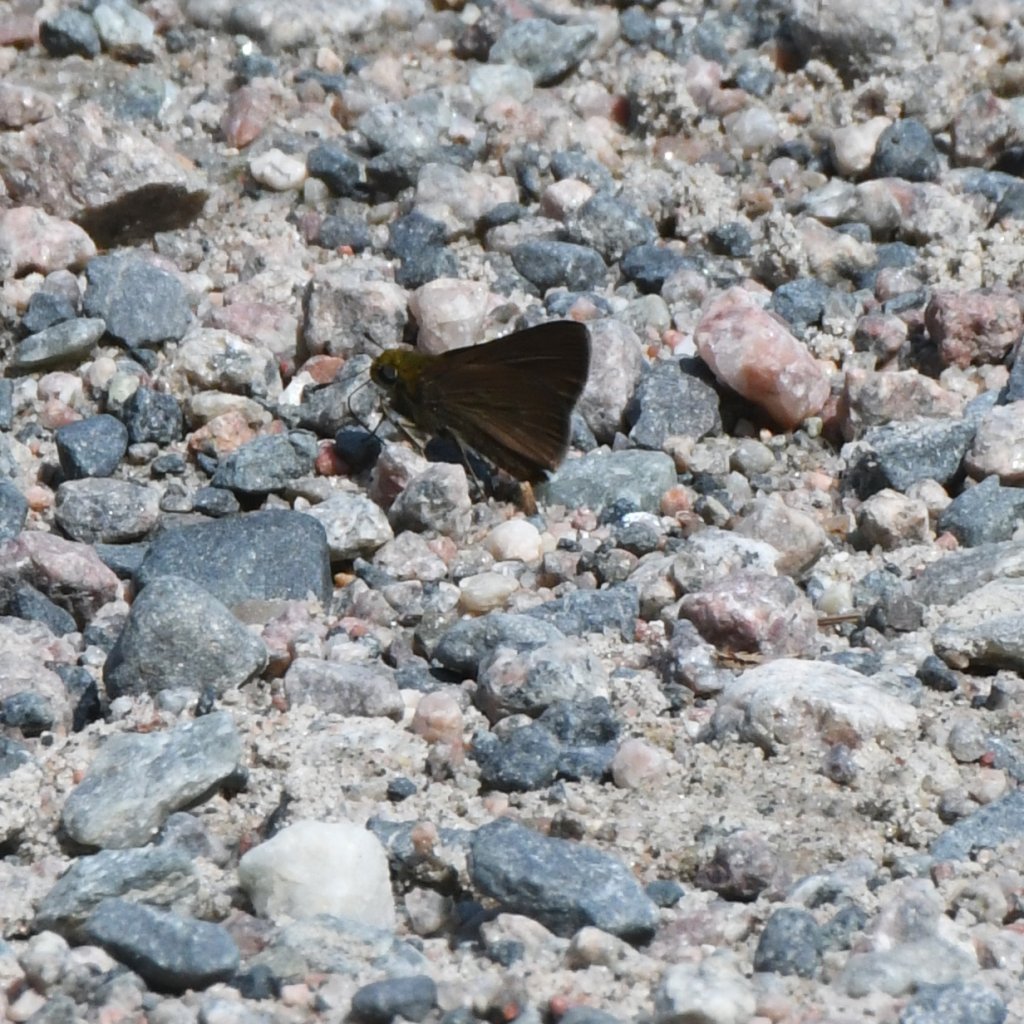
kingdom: Animalia
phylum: Arthropoda
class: Insecta
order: Lepidoptera
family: Hesperiidae
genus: Euphyes
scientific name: Euphyes vestris
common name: Dun Skipper
